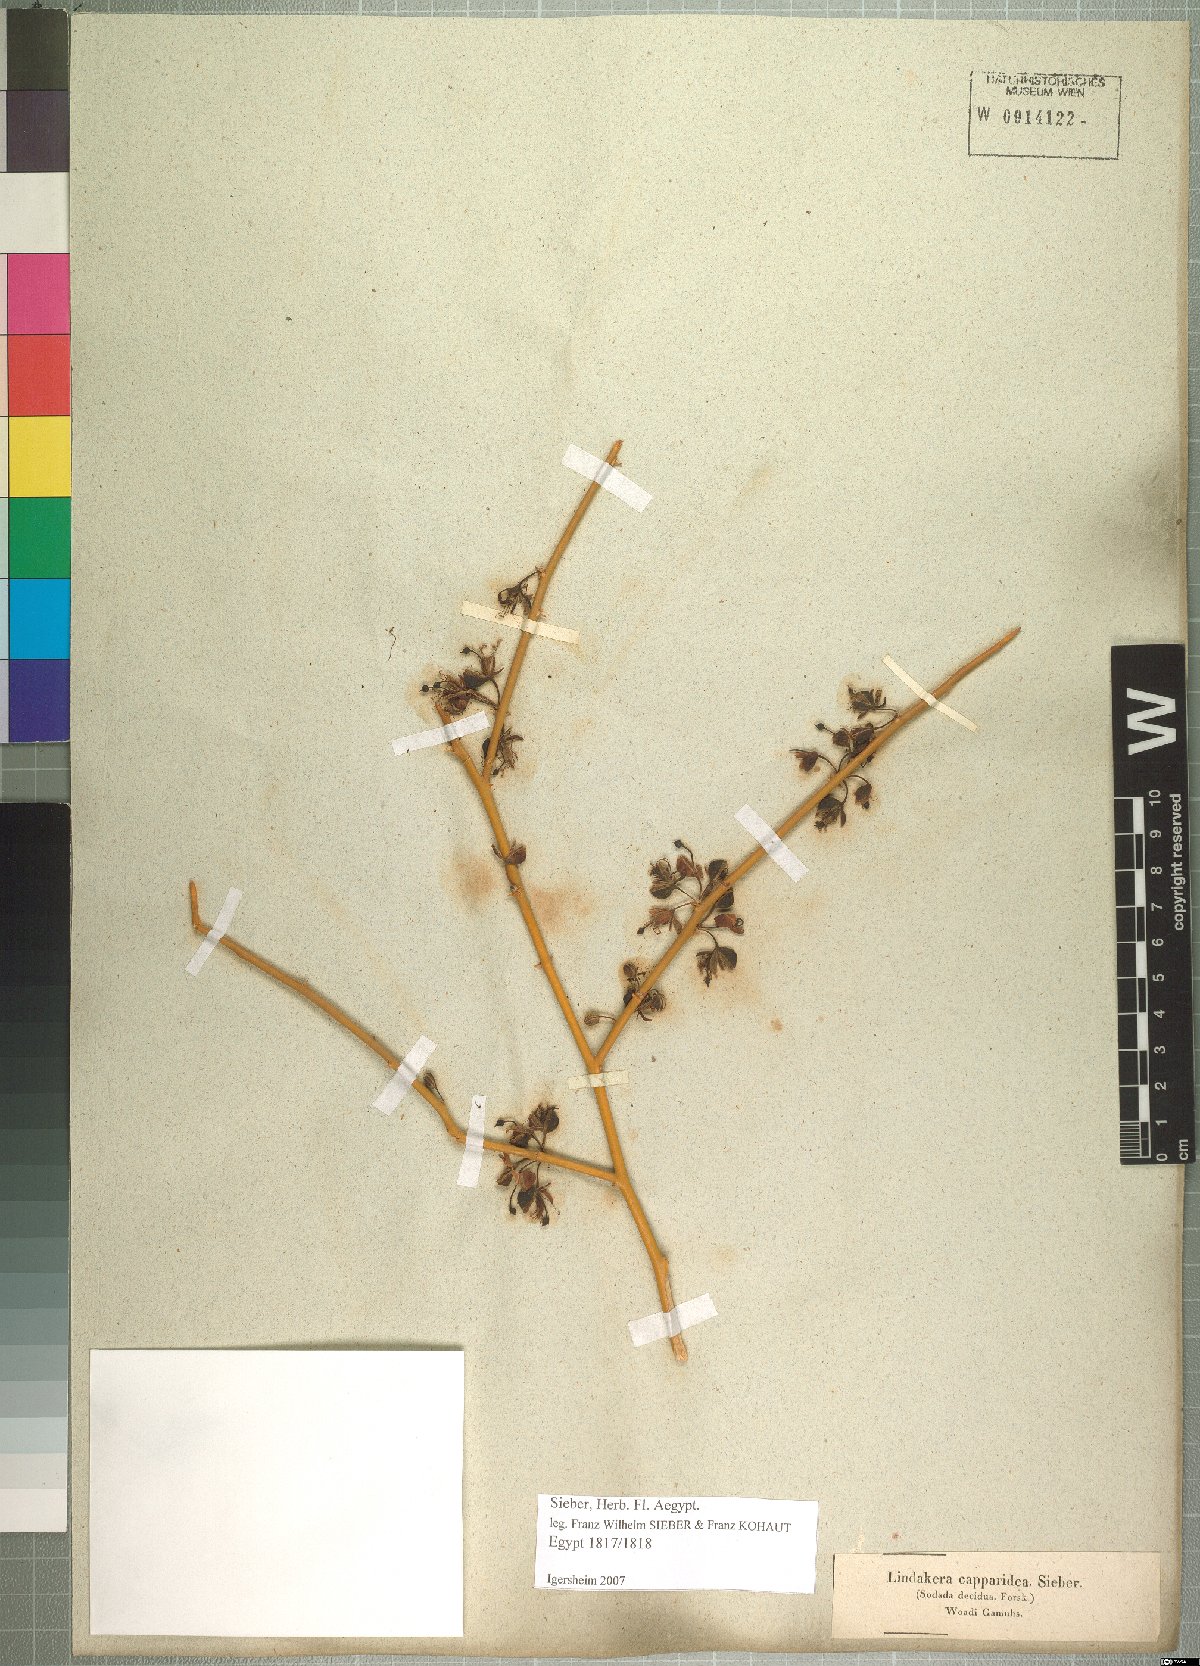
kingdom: Plantae
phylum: Tracheophyta
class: Magnoliopsida
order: Brassicales
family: Capparaceae
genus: Capparis
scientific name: Capparis decidua
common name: Sodada
